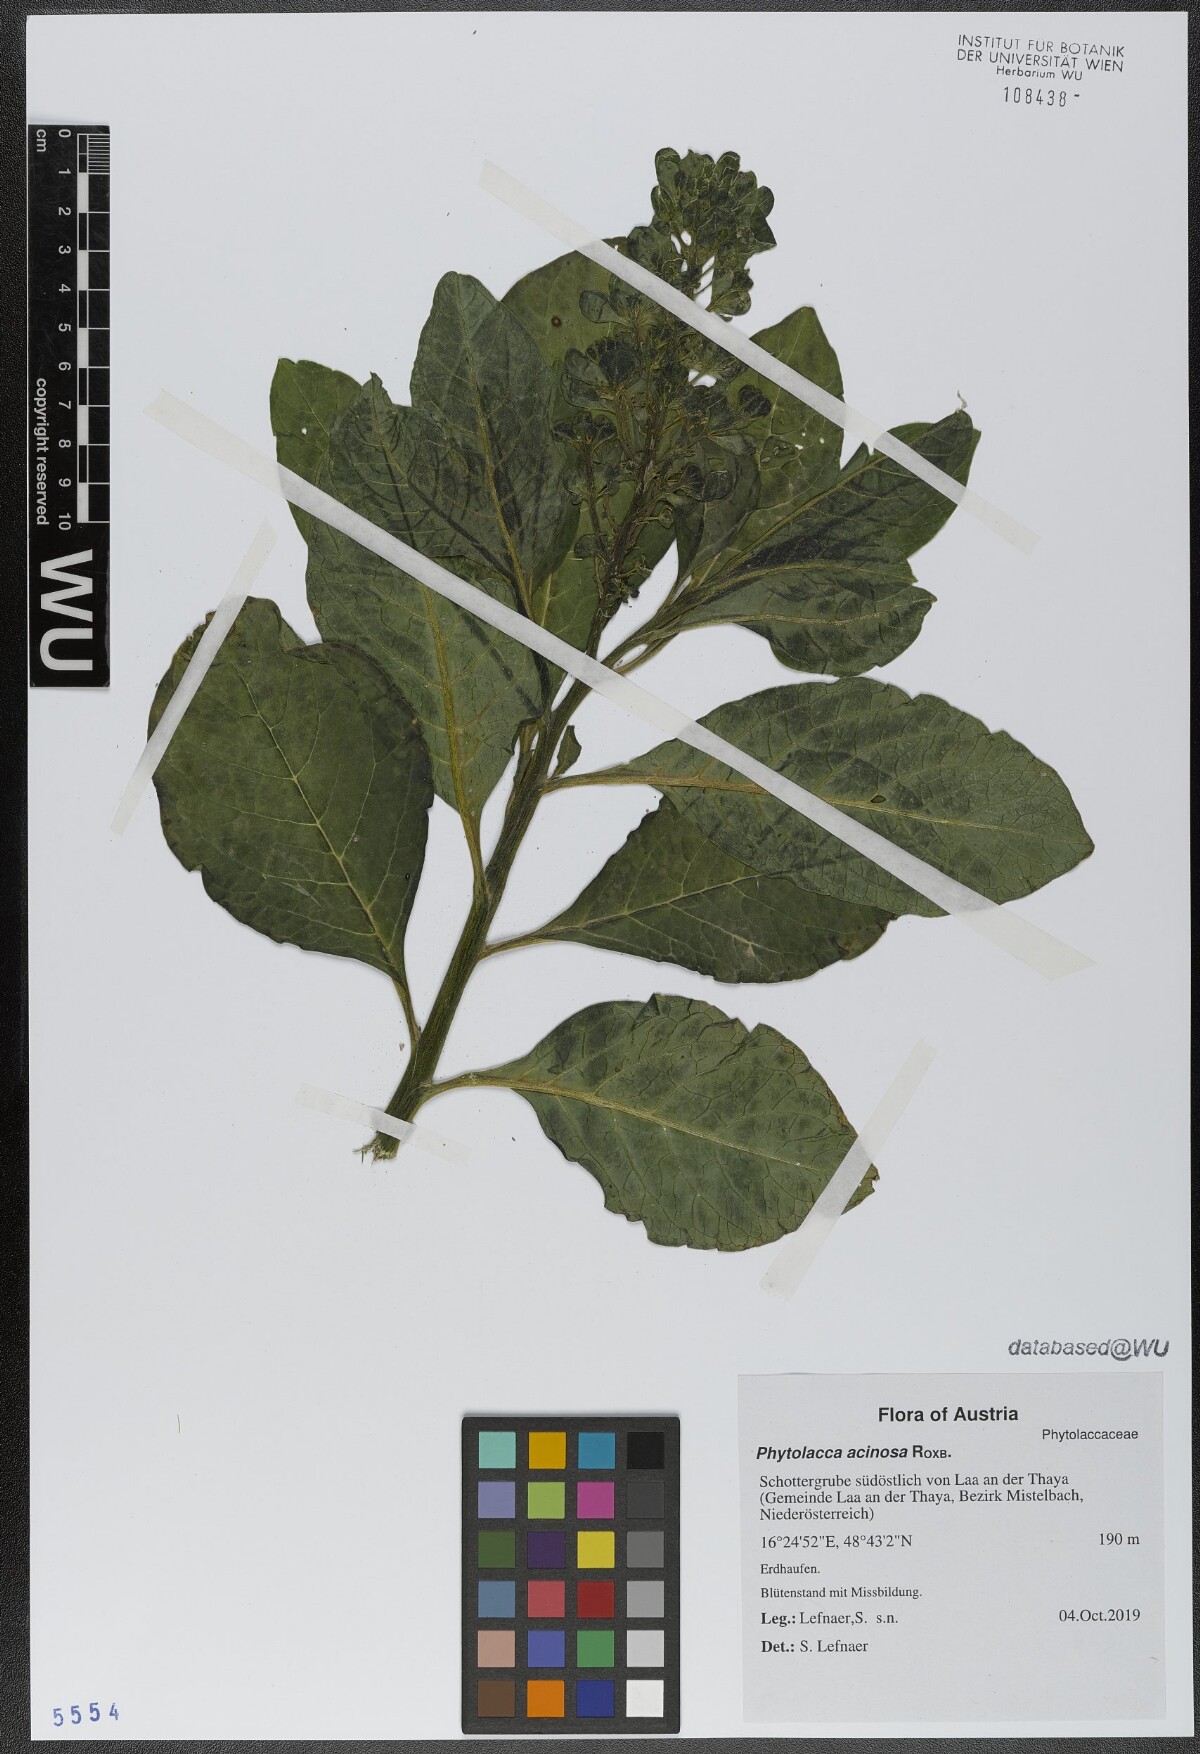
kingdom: Plantae
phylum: Tracheophyta
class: Magnoliopsida
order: Caryophyllales
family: Phytolaccaceae
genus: Phytolacca
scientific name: Phytolacca acinosa
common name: Indian pokeweed
